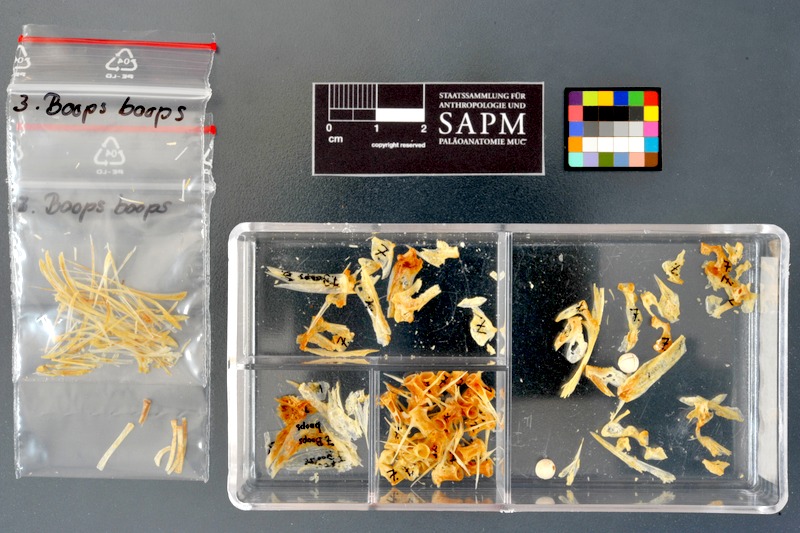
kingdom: Animalia
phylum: Chordata
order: Perciformes
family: Sparidae
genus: Boops
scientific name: Boops boops
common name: Bogue
